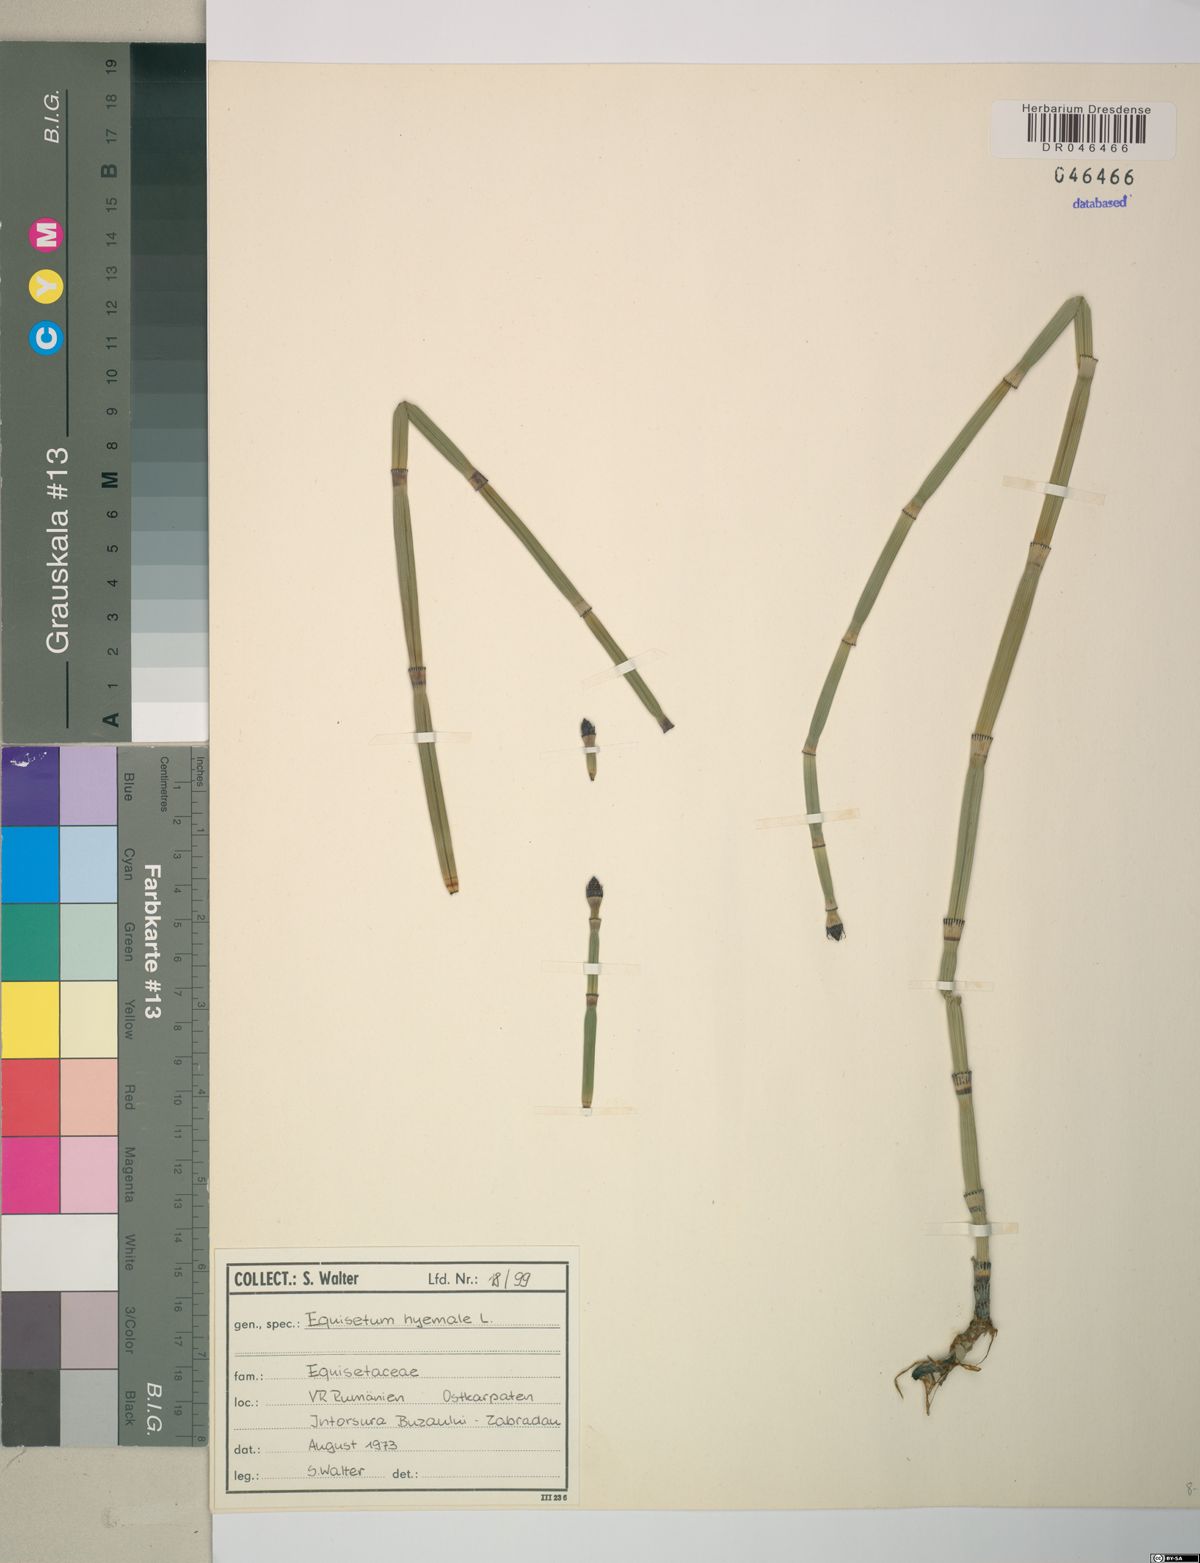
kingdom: Plantae
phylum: Tracheophyta
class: Polypodiopsida
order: Equisetales
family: Equisetaceae
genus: Equisetum
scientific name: Equisetum hyemale
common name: Rough horsetail
